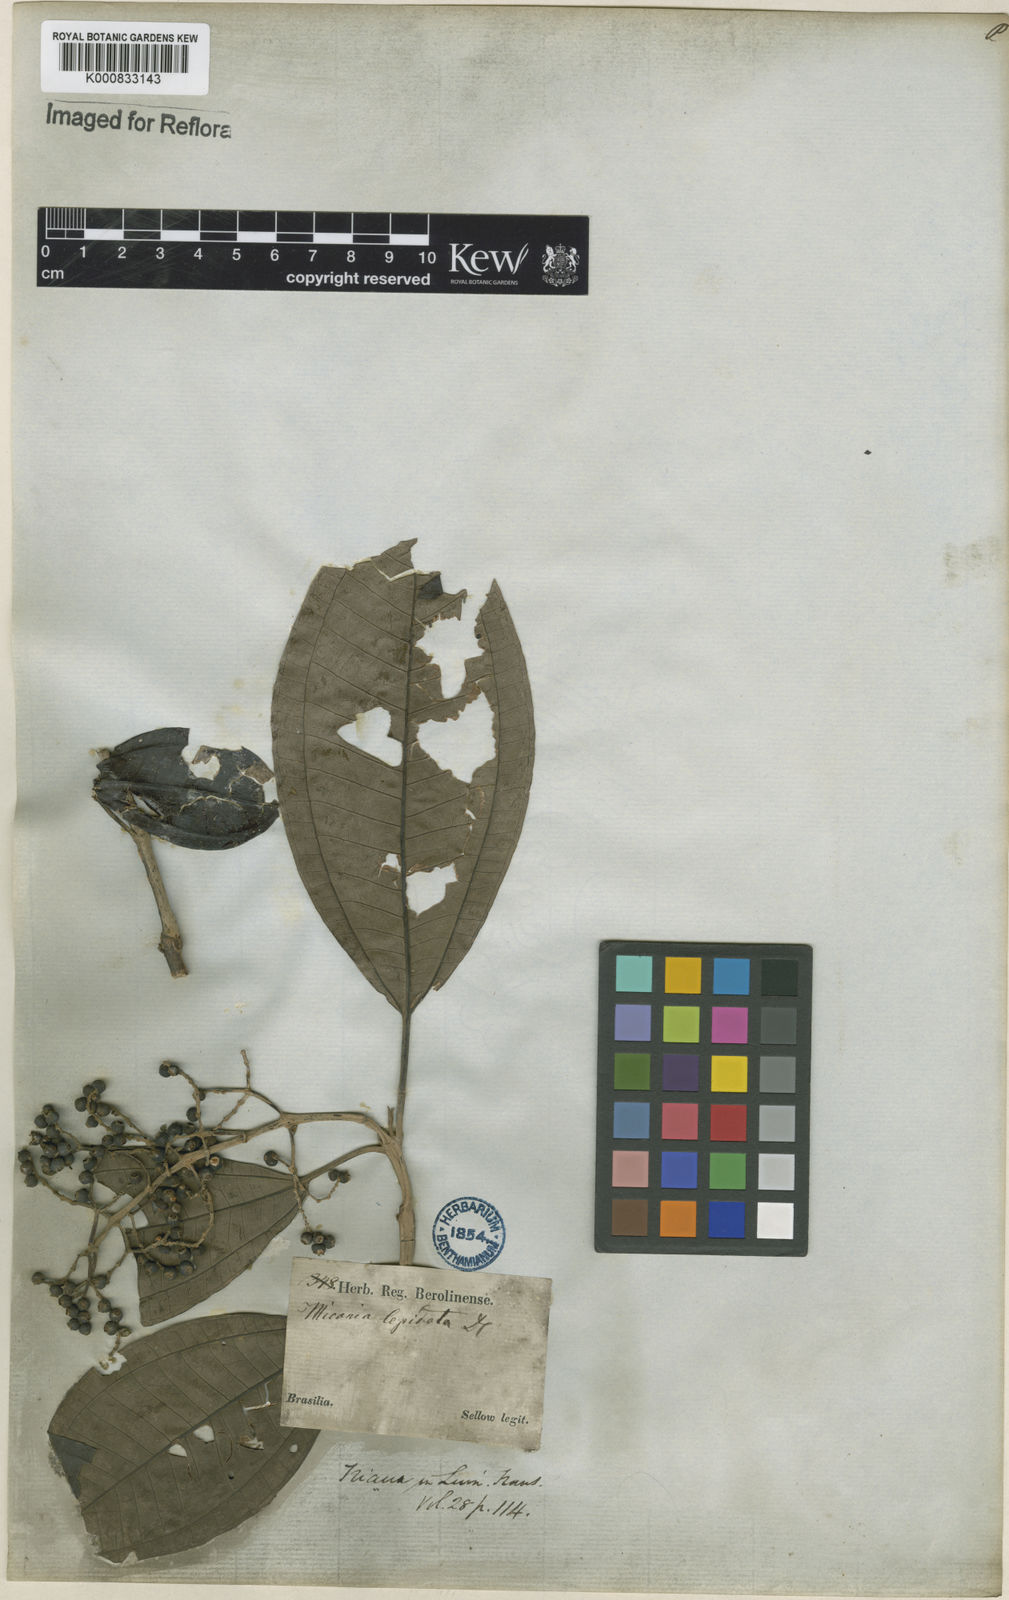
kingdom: Plantae
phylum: Tracheophyta
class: Magnoliopsida
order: Myrtales
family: Melastomataceae
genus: Miconia
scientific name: Miconia lepidota
